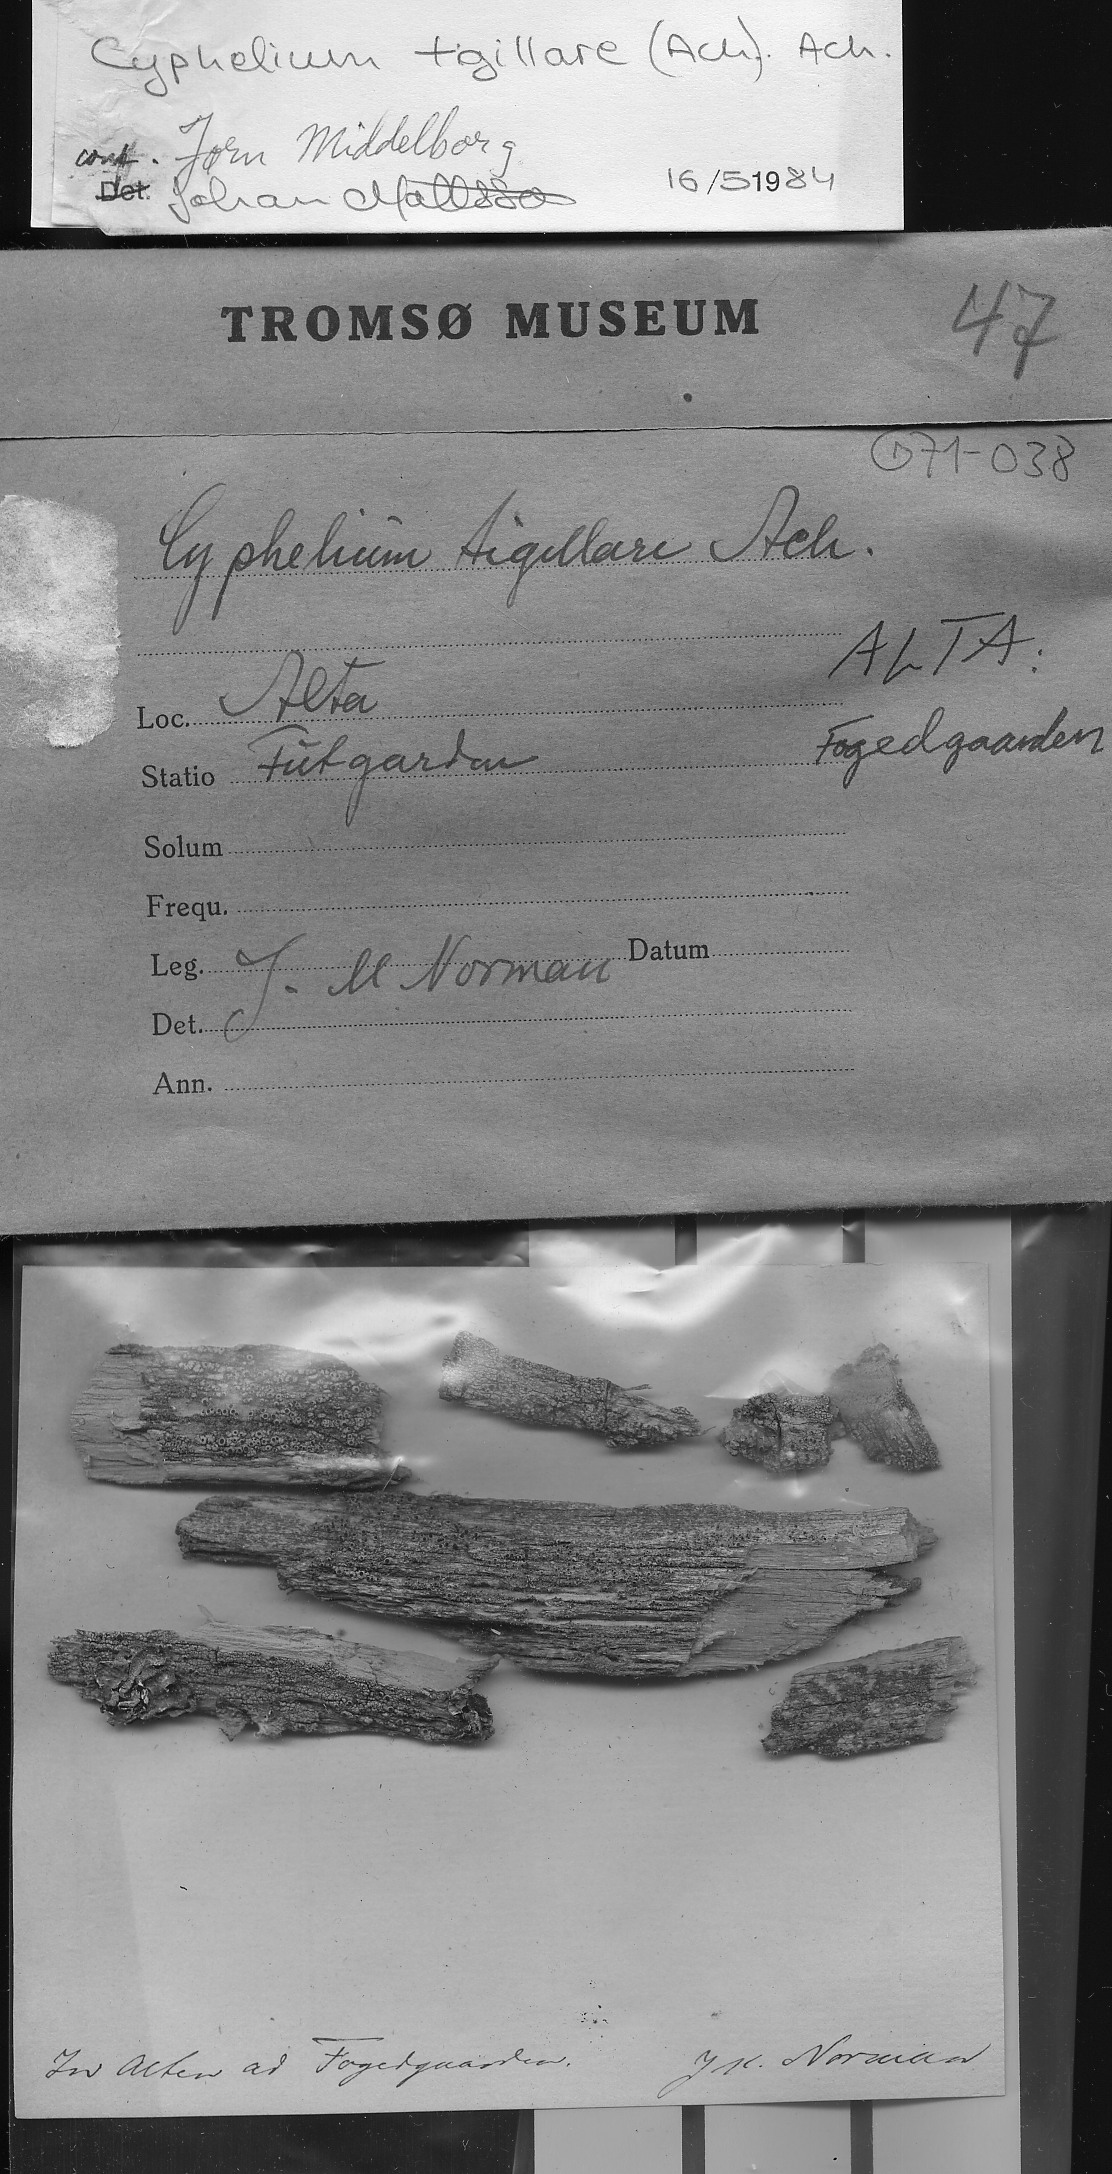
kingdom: Fungi
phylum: Ascomycota
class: Lecanoromycetes
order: Caliciales
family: Caliciaceae
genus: Calicium
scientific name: Calicium tigillare
